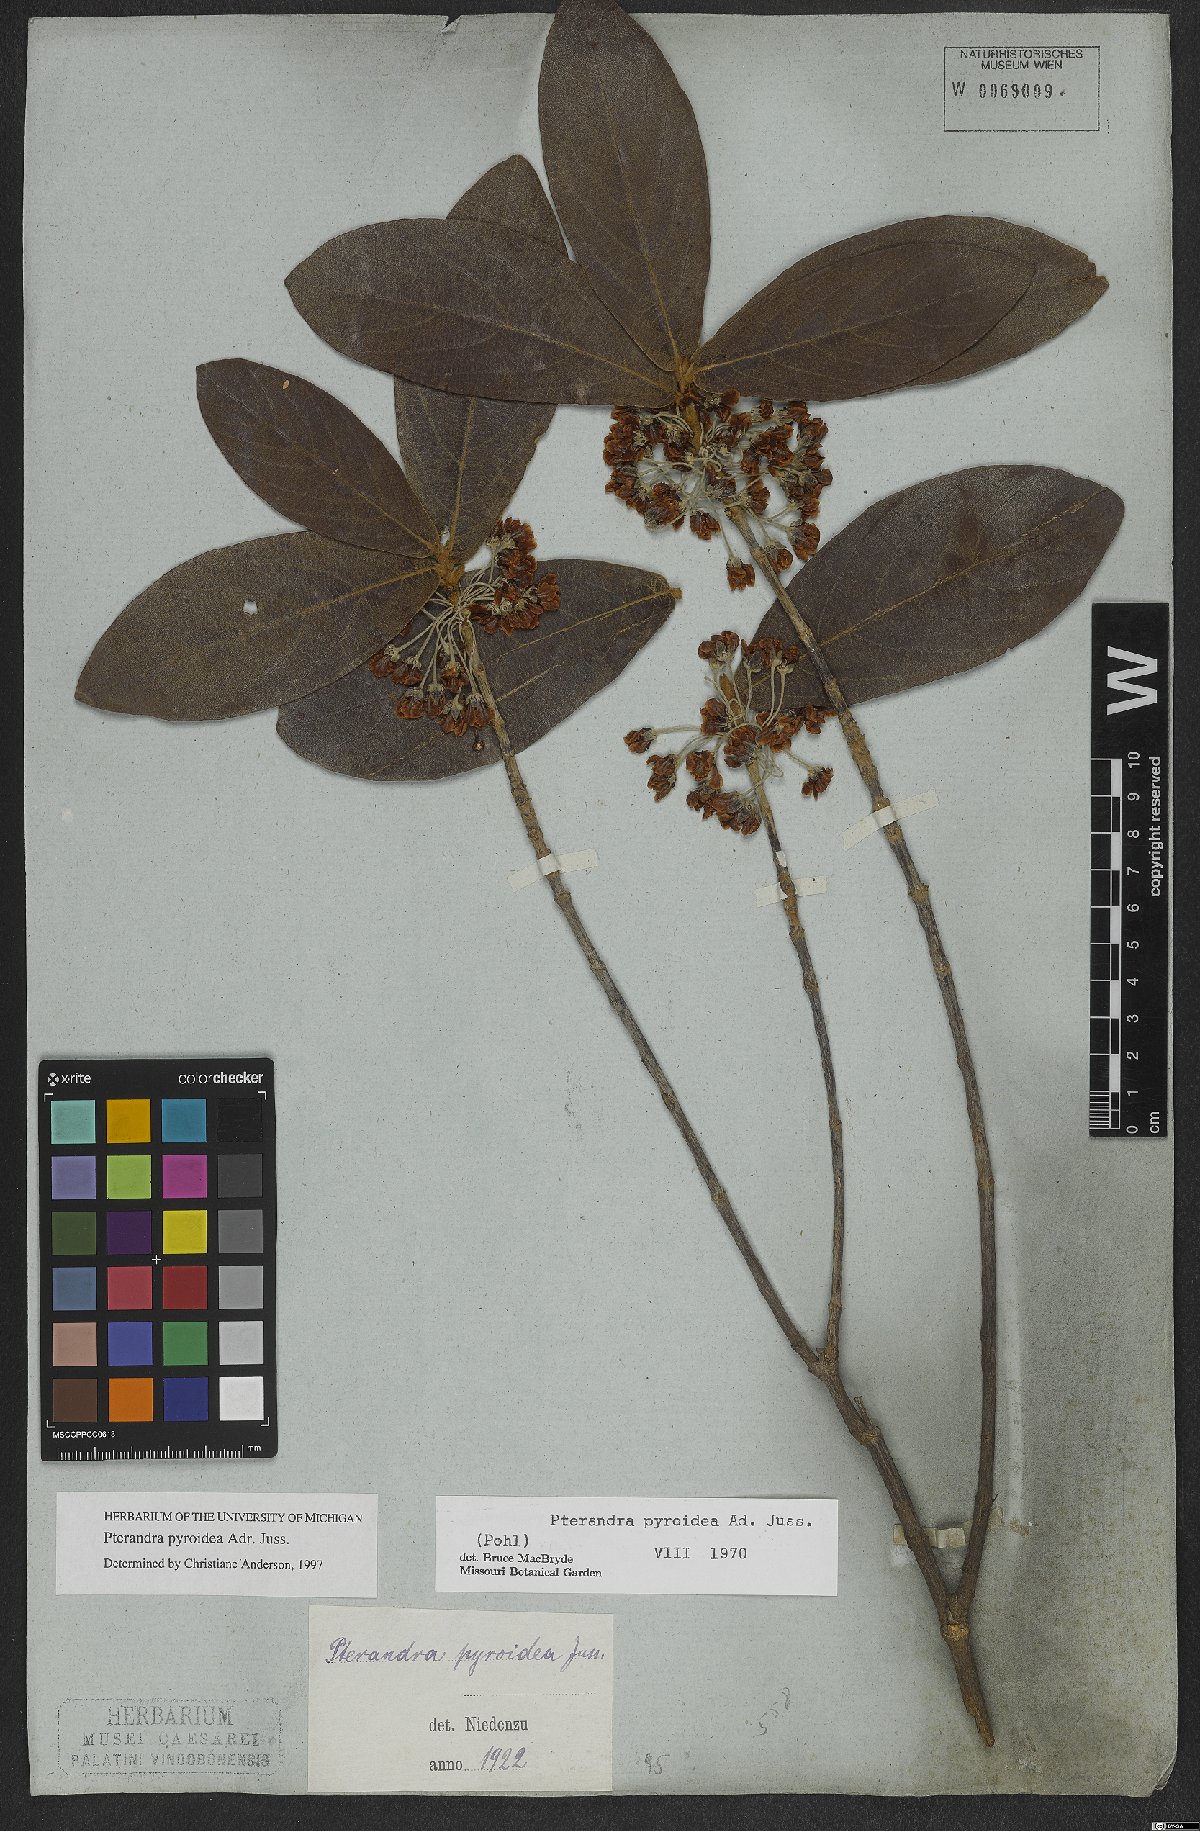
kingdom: Plantae
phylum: Tracheophyta
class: Magnoliopsida
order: Malpighiales
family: Malpighiaceae
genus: Pterandra
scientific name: Pterandra pyroidea
